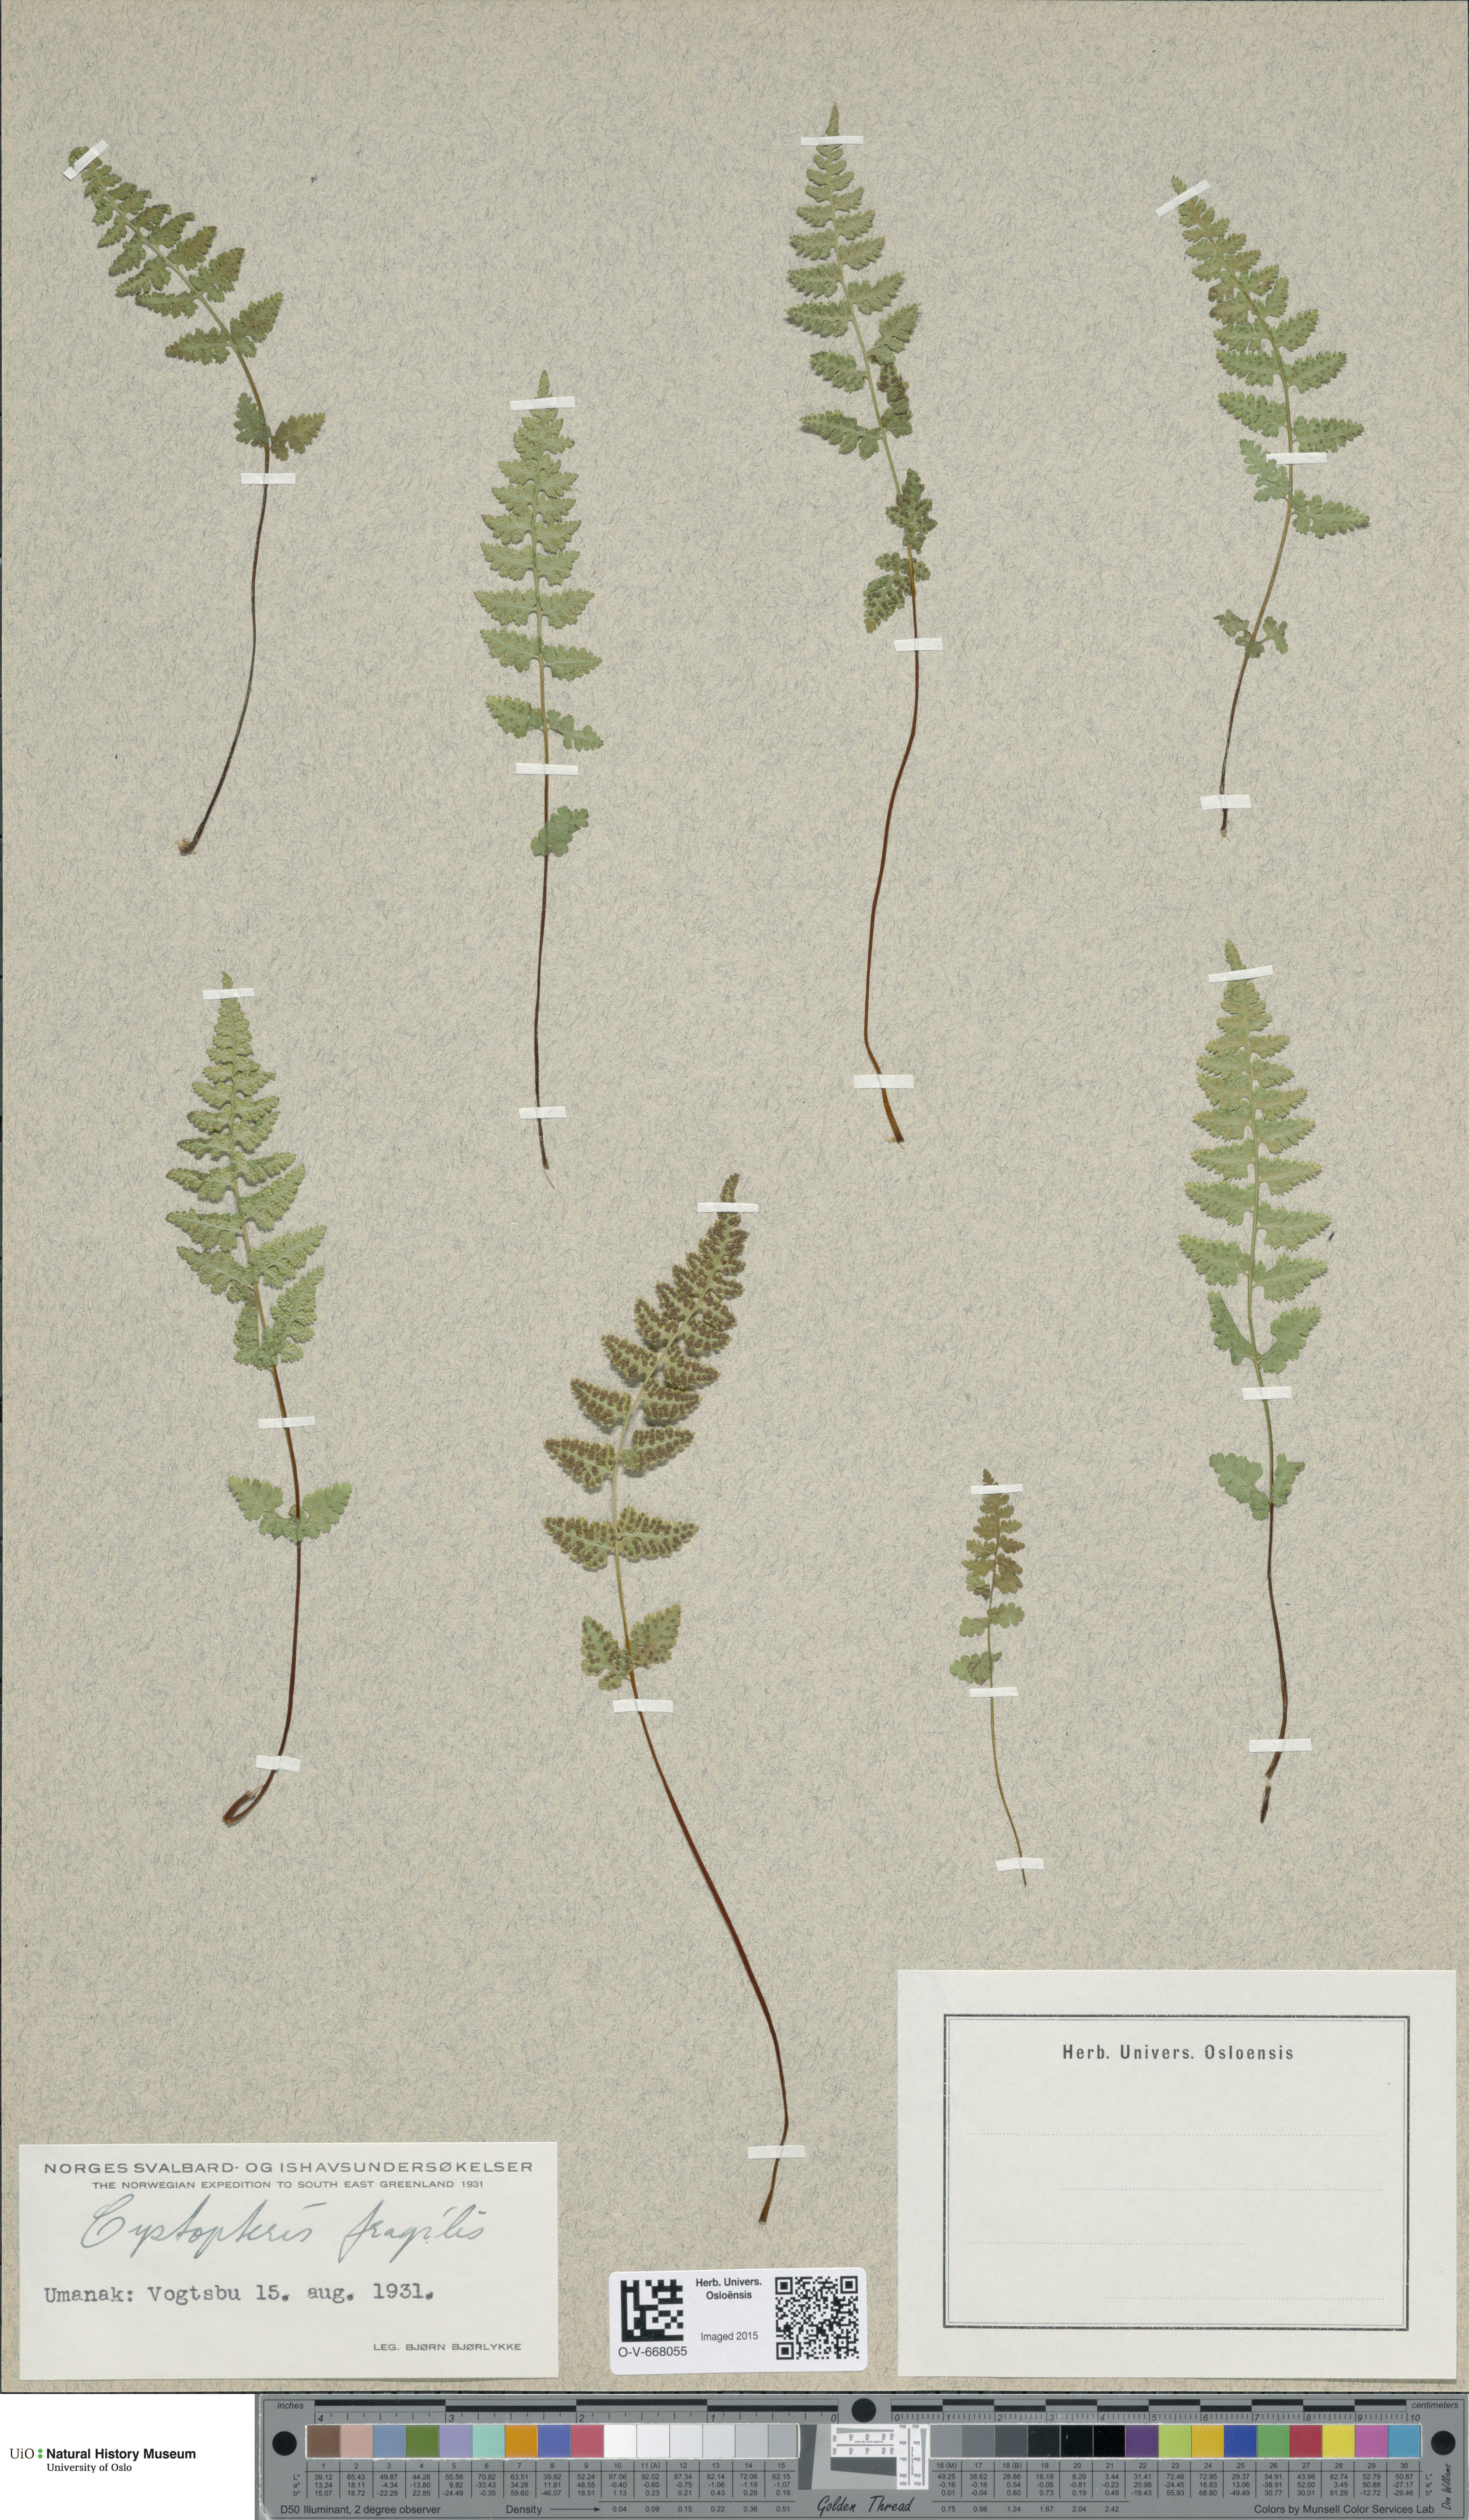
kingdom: Plantae
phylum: Tracheophyta
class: Polypodiopsida
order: Polypodiales
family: Cystopteridaceae
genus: Cystopteris
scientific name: Cystopteris fragilis
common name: Brittle bladder fern
